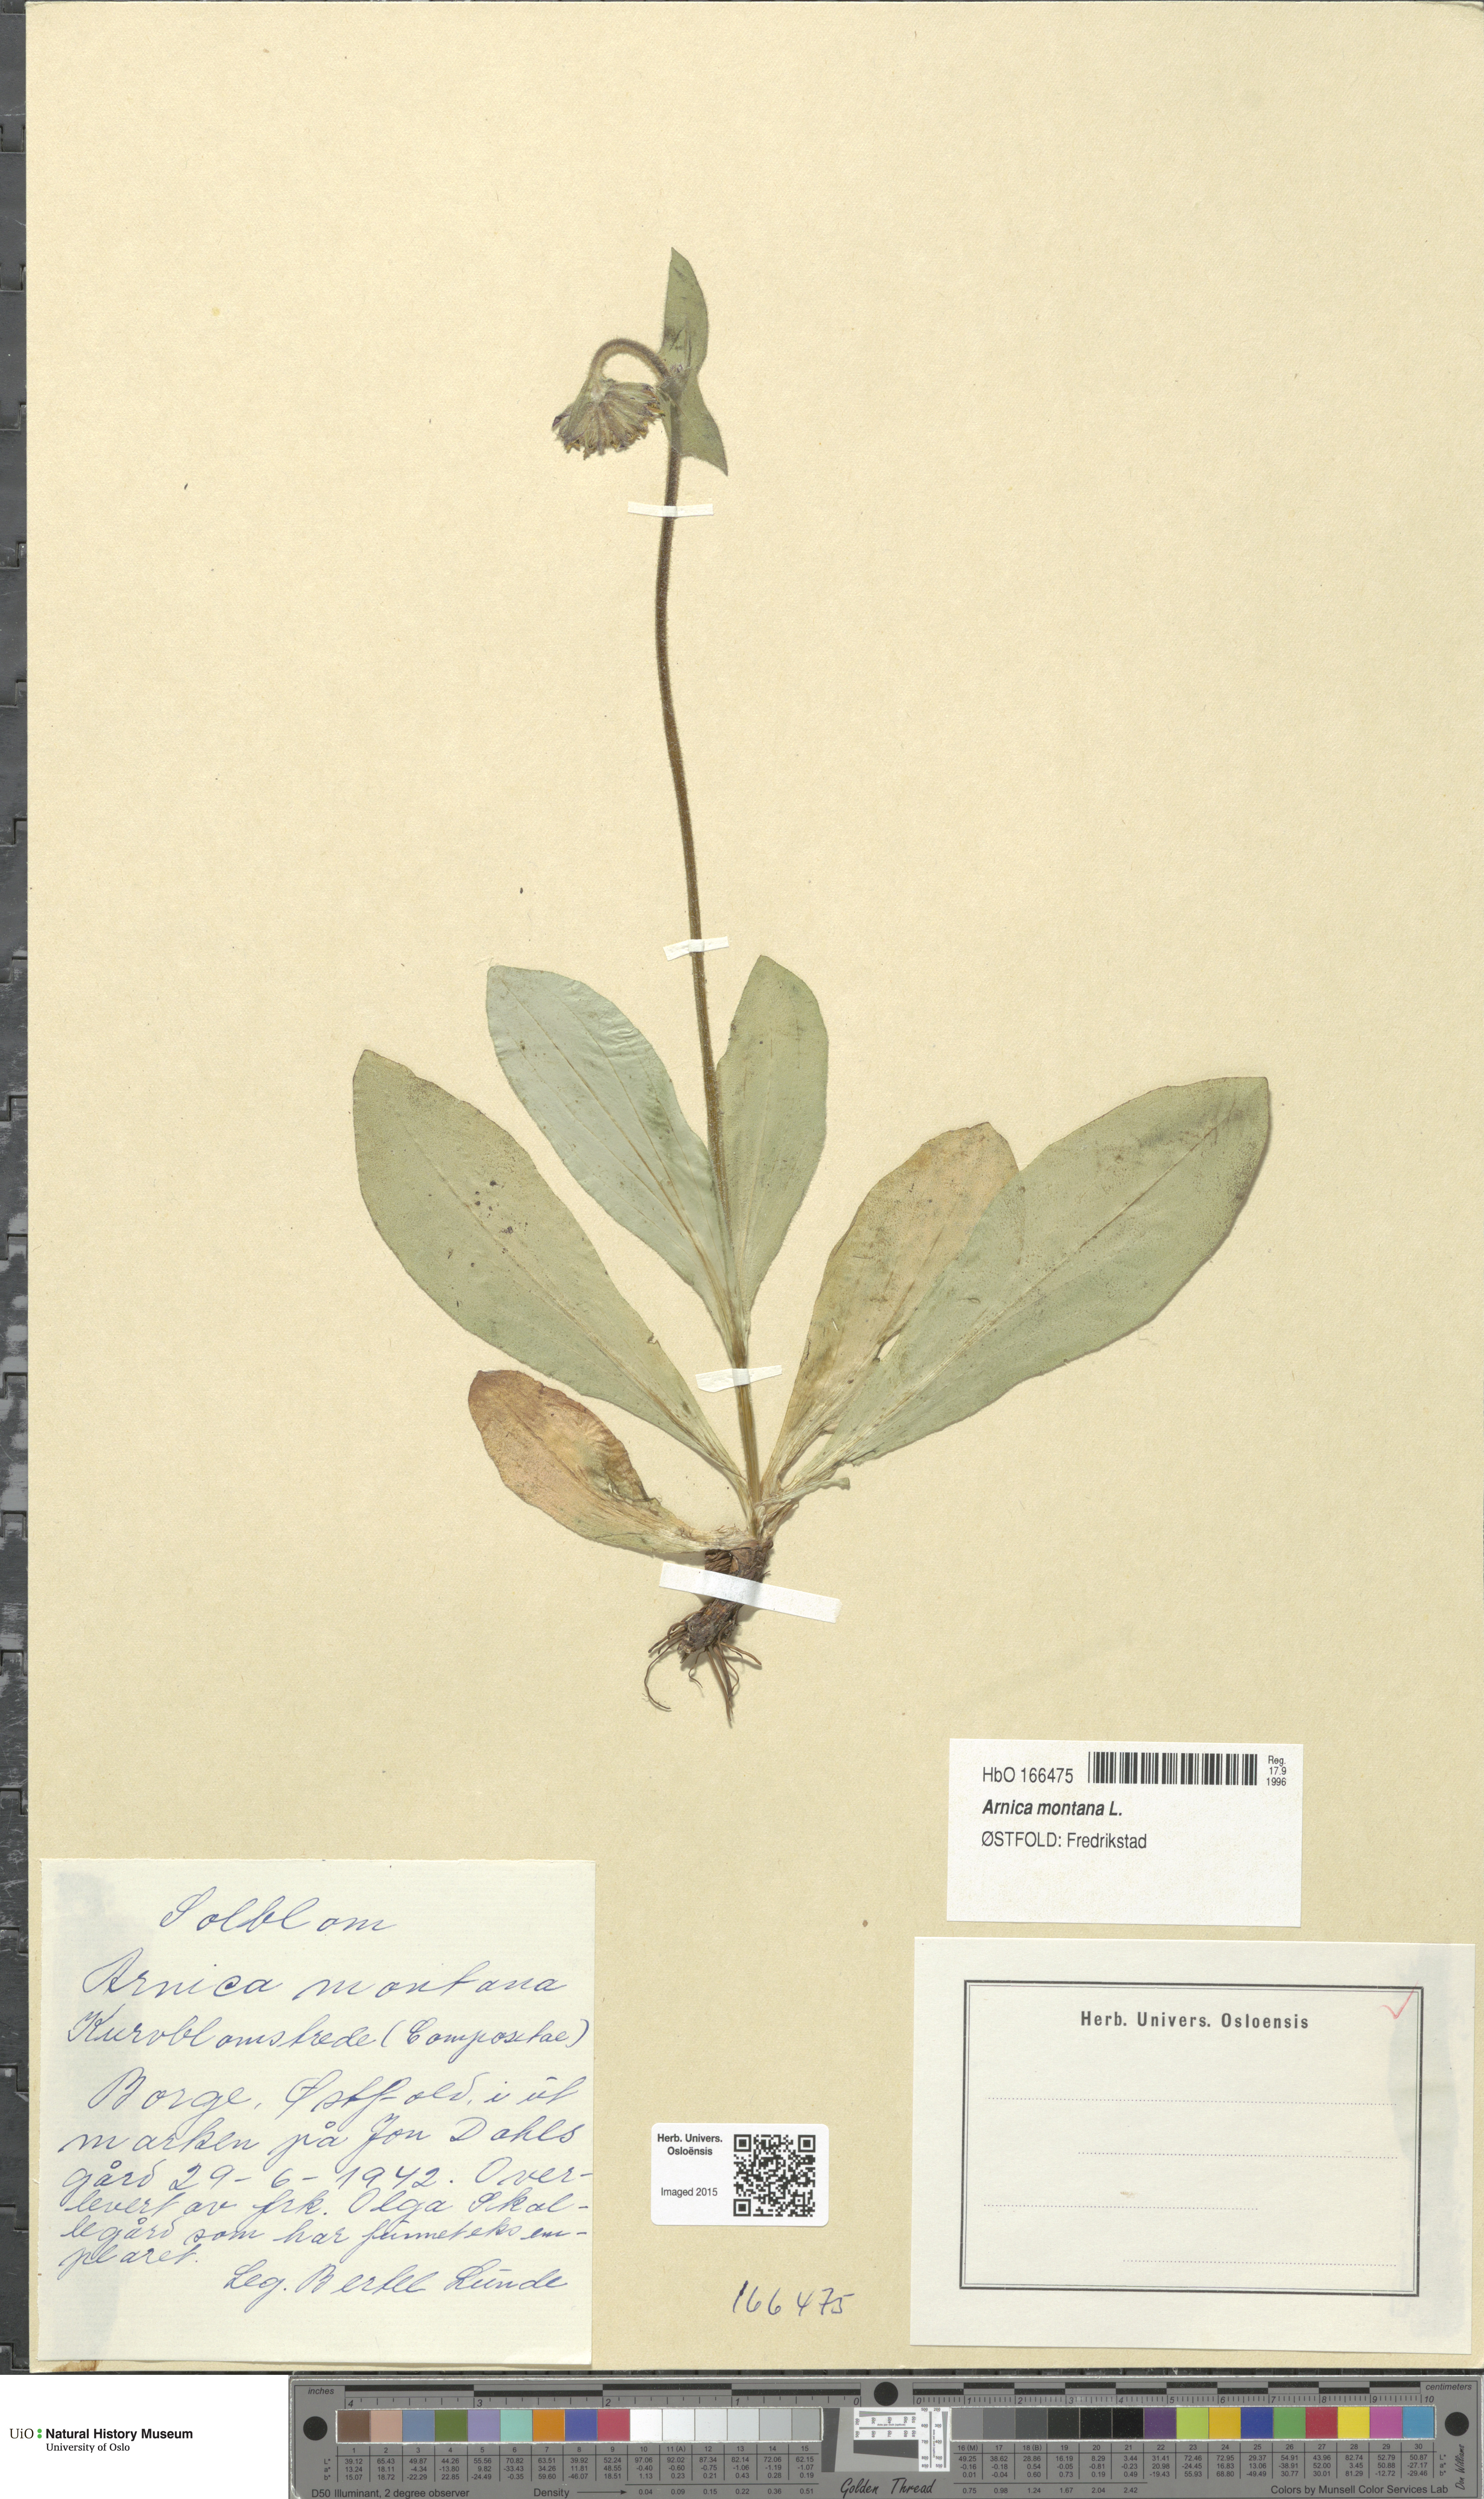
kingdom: Plantae
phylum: Tracheophyta
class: Magnoliopsida
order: Asterales
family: Asteraceae
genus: Arnica
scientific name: Arnica montana
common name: Leopard's bane
